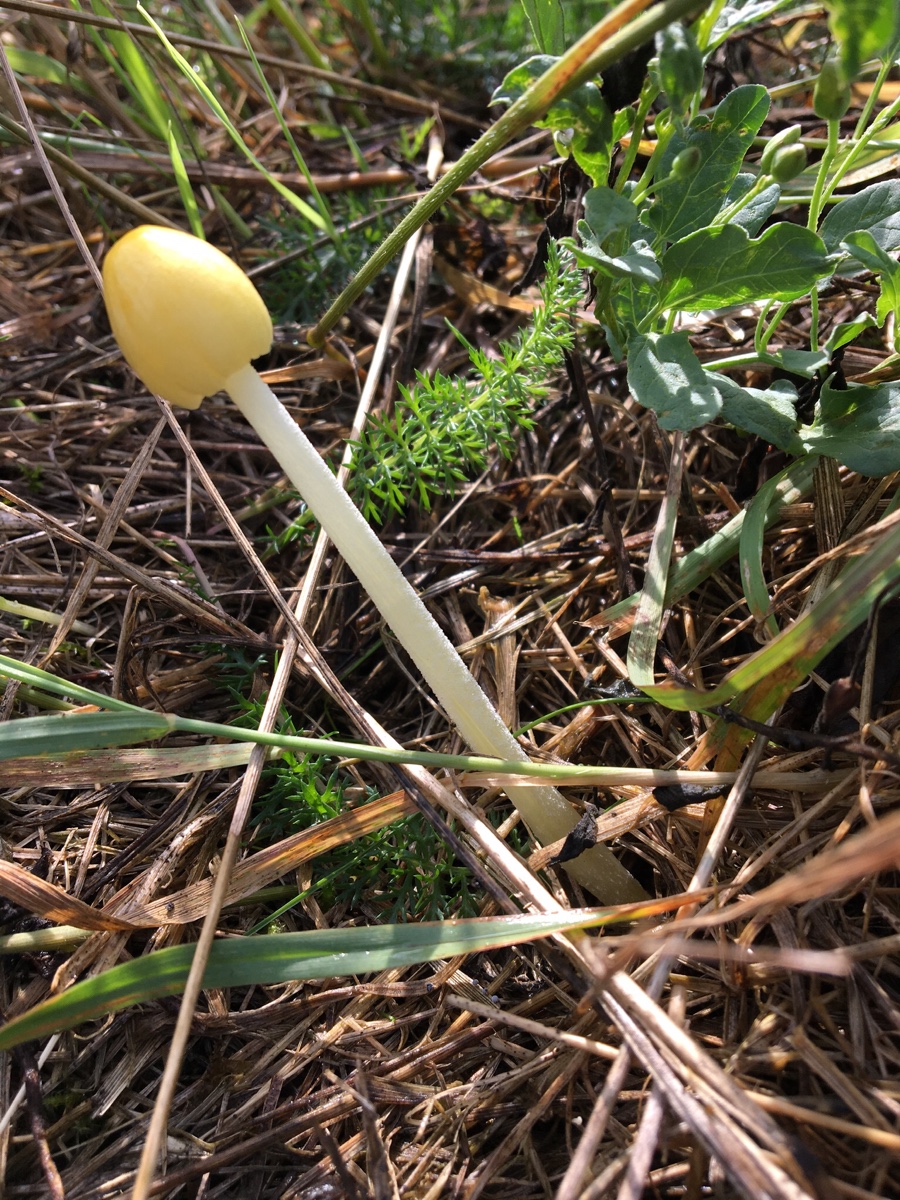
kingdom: Fungi
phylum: Basidiomycota
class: Agaricomycetes
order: Agaricales
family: Bolbitiaceae
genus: Bolbitius
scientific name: Bolbitius titubans
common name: almindelig gulhat
